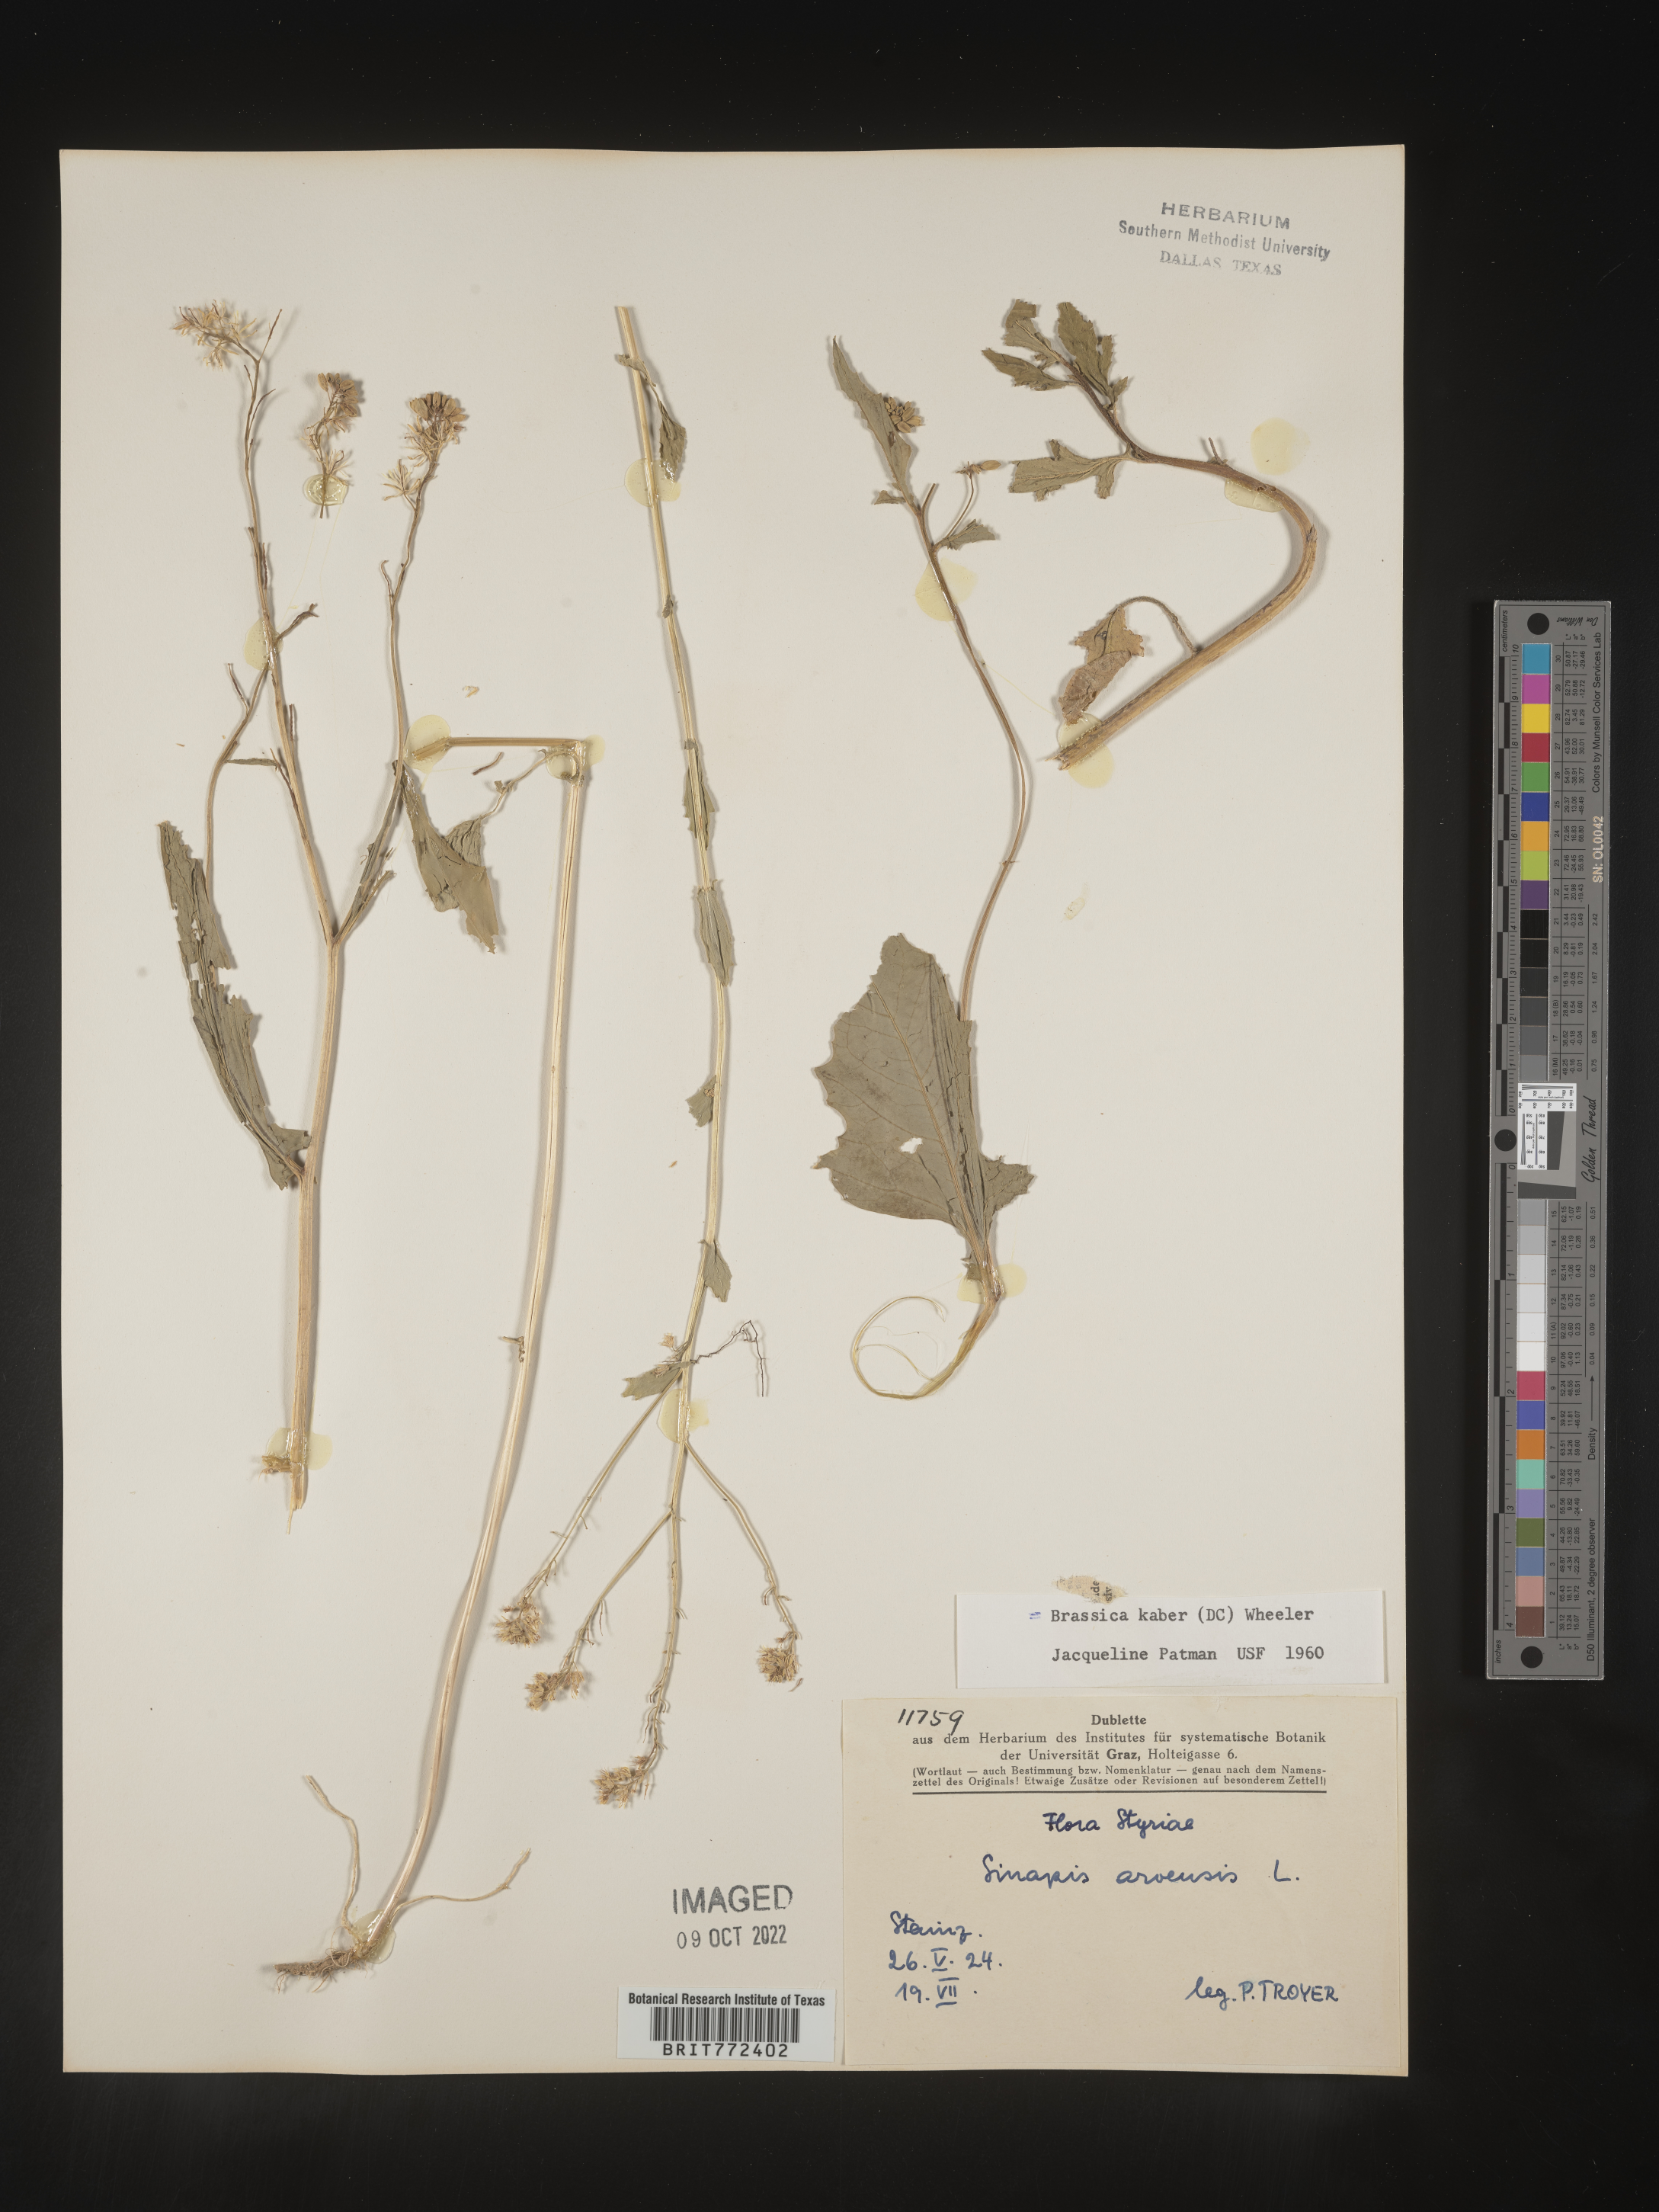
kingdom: Plantae
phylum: Tracheophyta
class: Magnoliopsida
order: Brassicales
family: Brassicaceae
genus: Brassica
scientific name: Brassica
